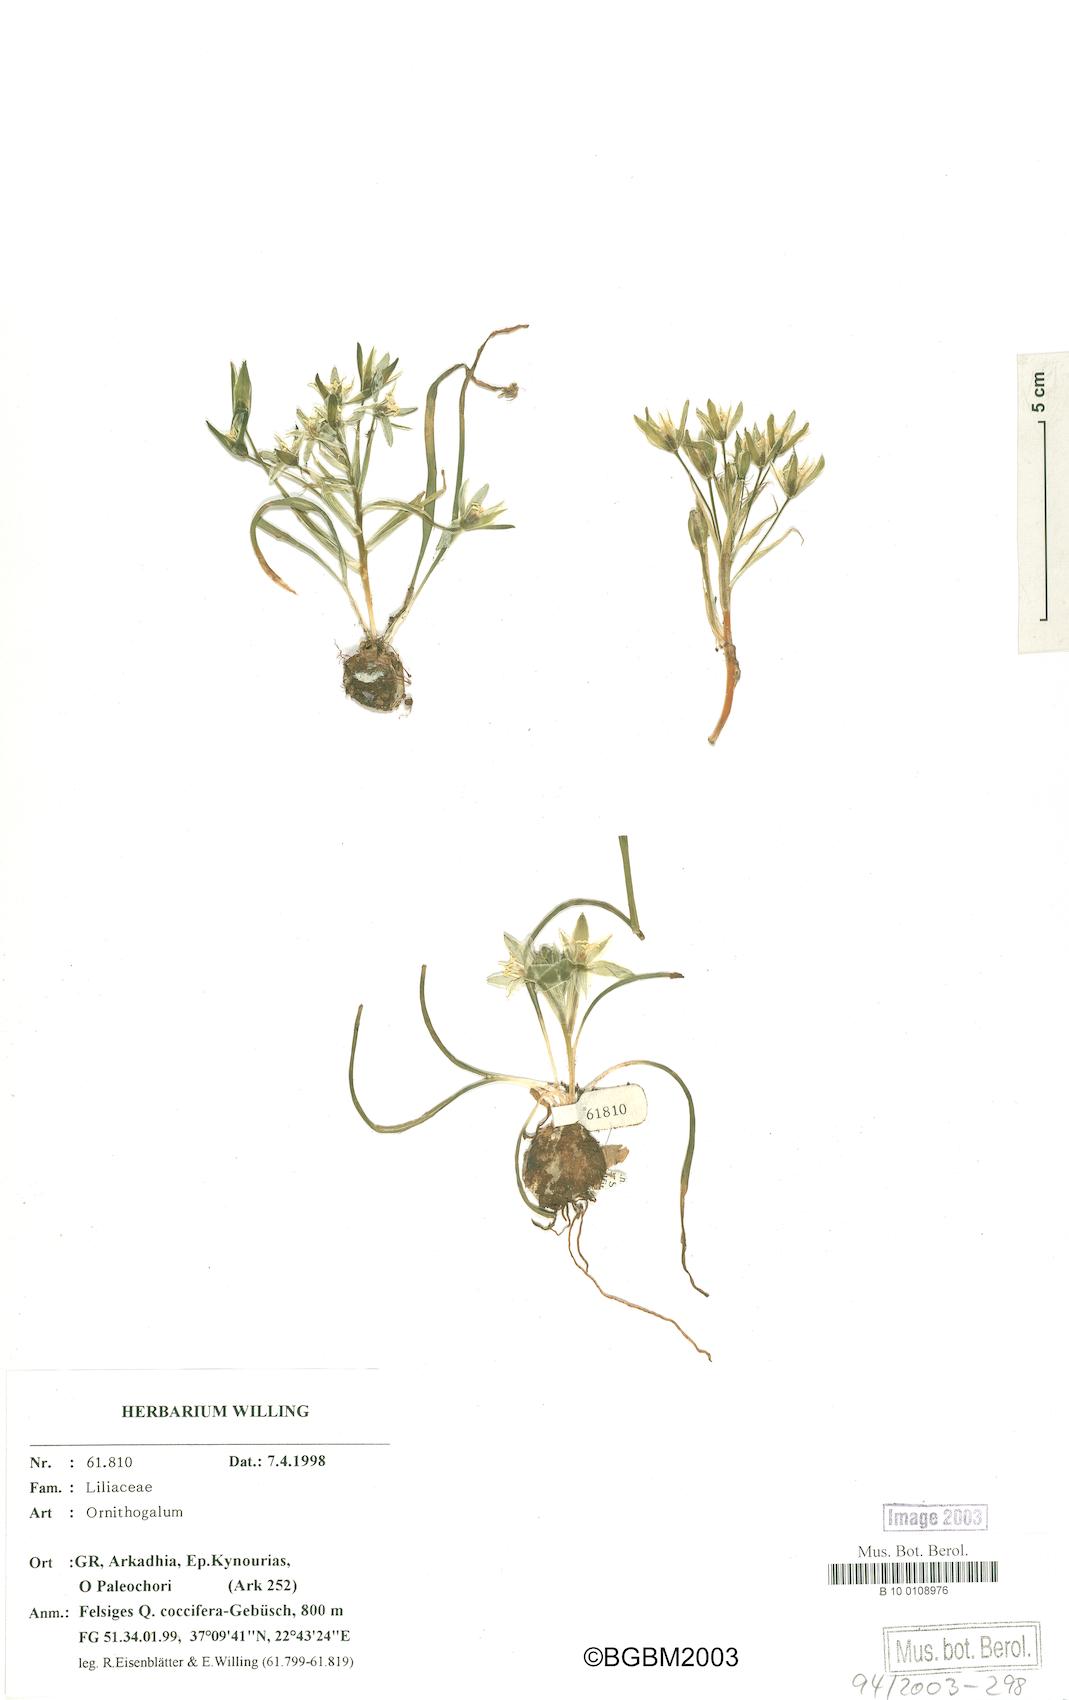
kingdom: Plantae
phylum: Tracheophyta
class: Liliopsida
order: Asparagales
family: Asparagaceae
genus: Ornithogalum
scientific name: Ornithogalum
